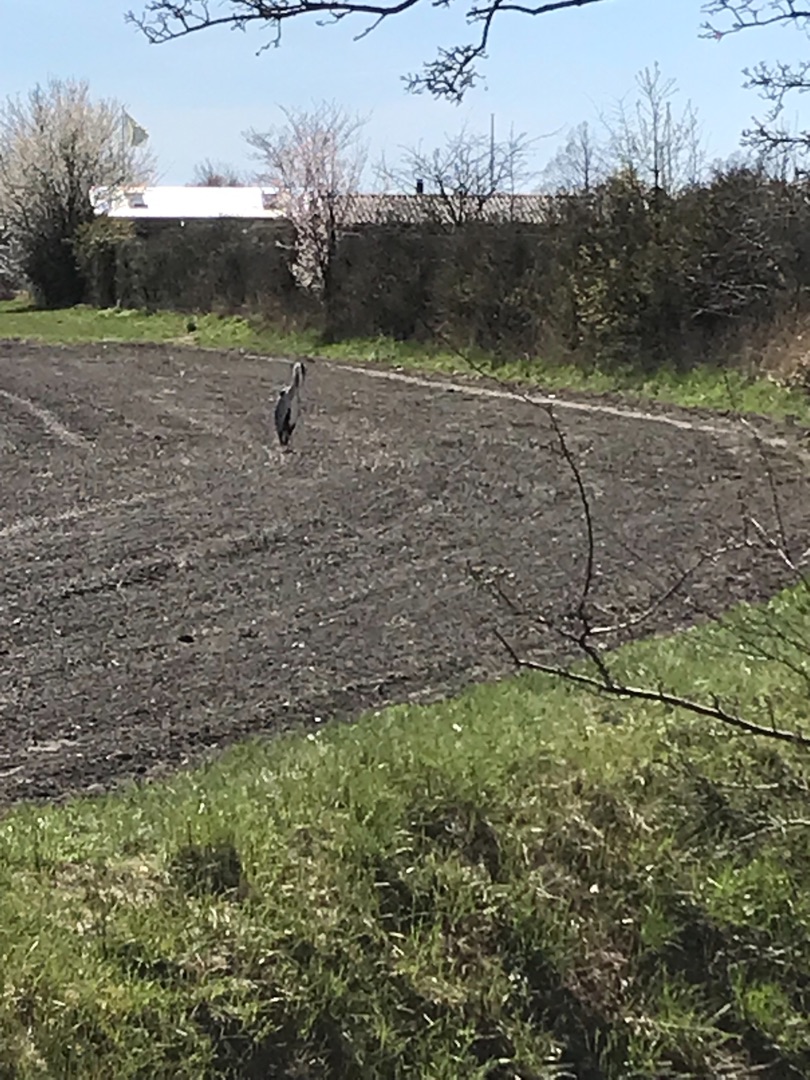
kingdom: Animalia
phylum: Chordata
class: Aves
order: Pelecaniformes
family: Ardeidae
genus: Ardea
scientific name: Ardea cinerea
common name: Fiskehejre
